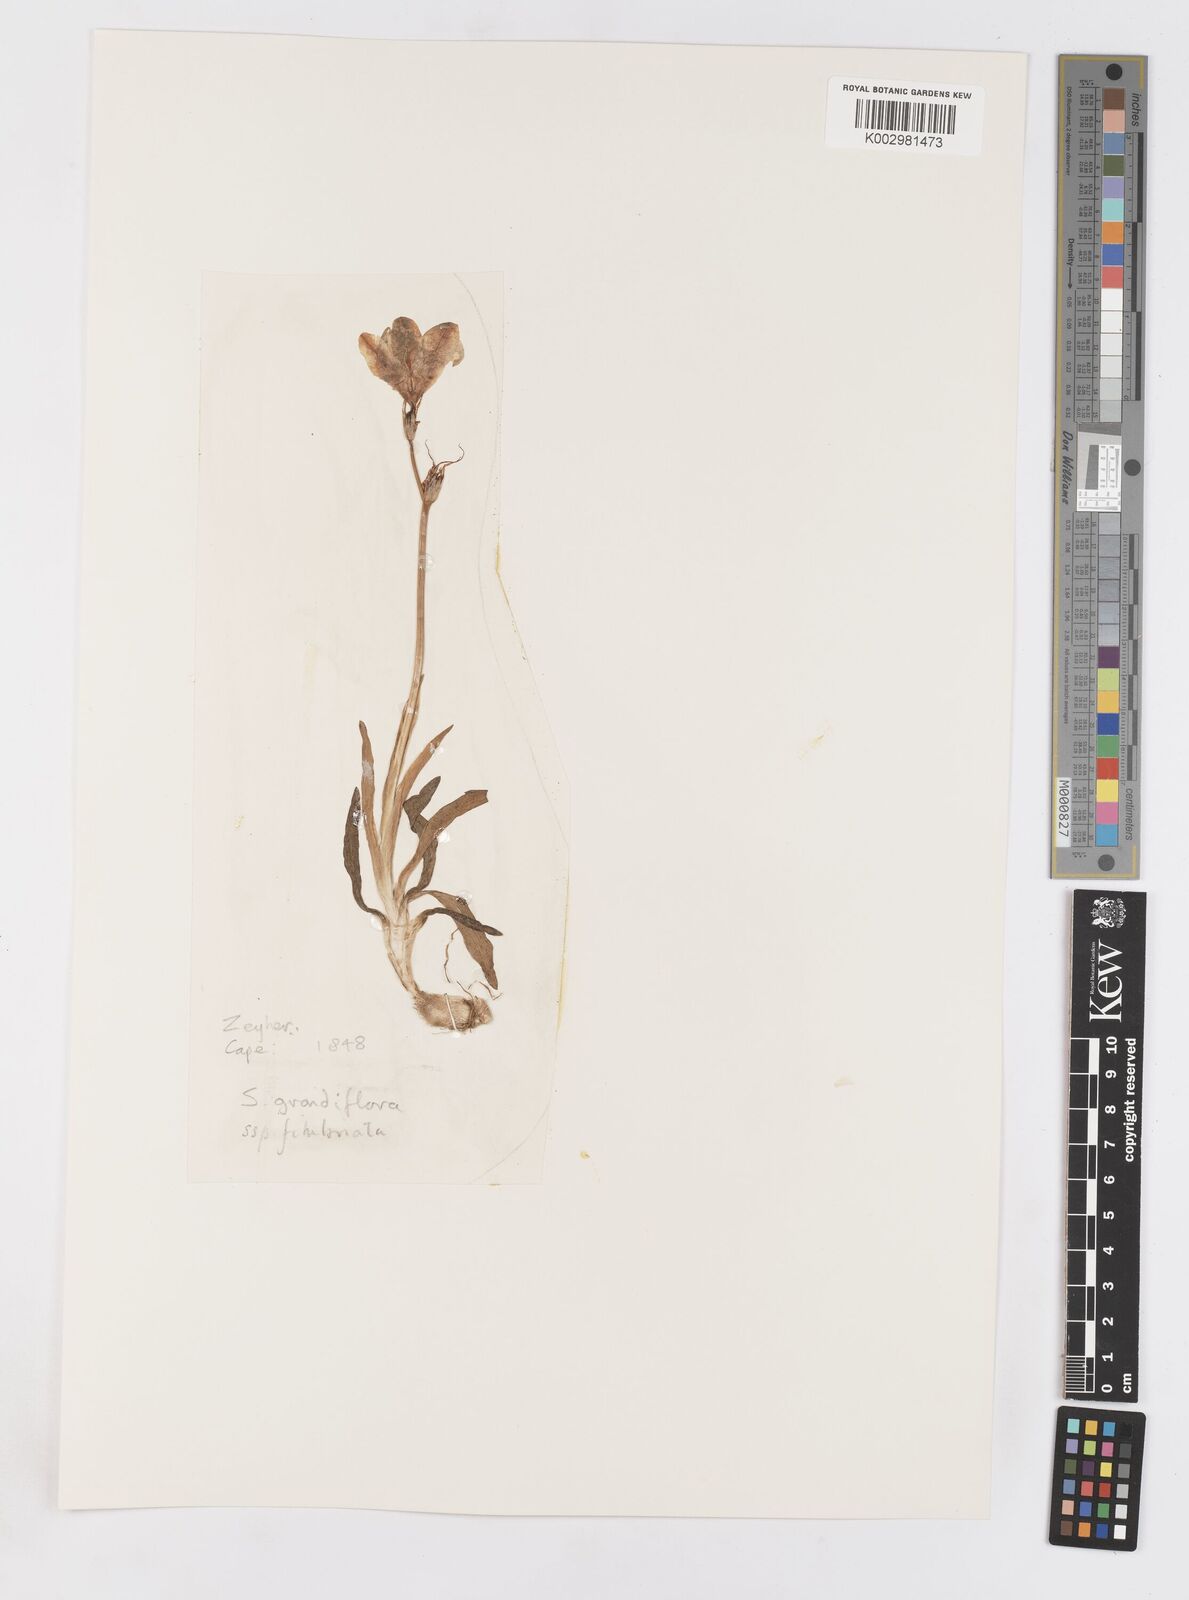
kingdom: Plantae
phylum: Tracheophyta
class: Liliopsida
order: Asparagales
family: Iridaceae
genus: Sparaxis
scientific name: Sparaxis grandiflora
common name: Plain harlequin-flower
